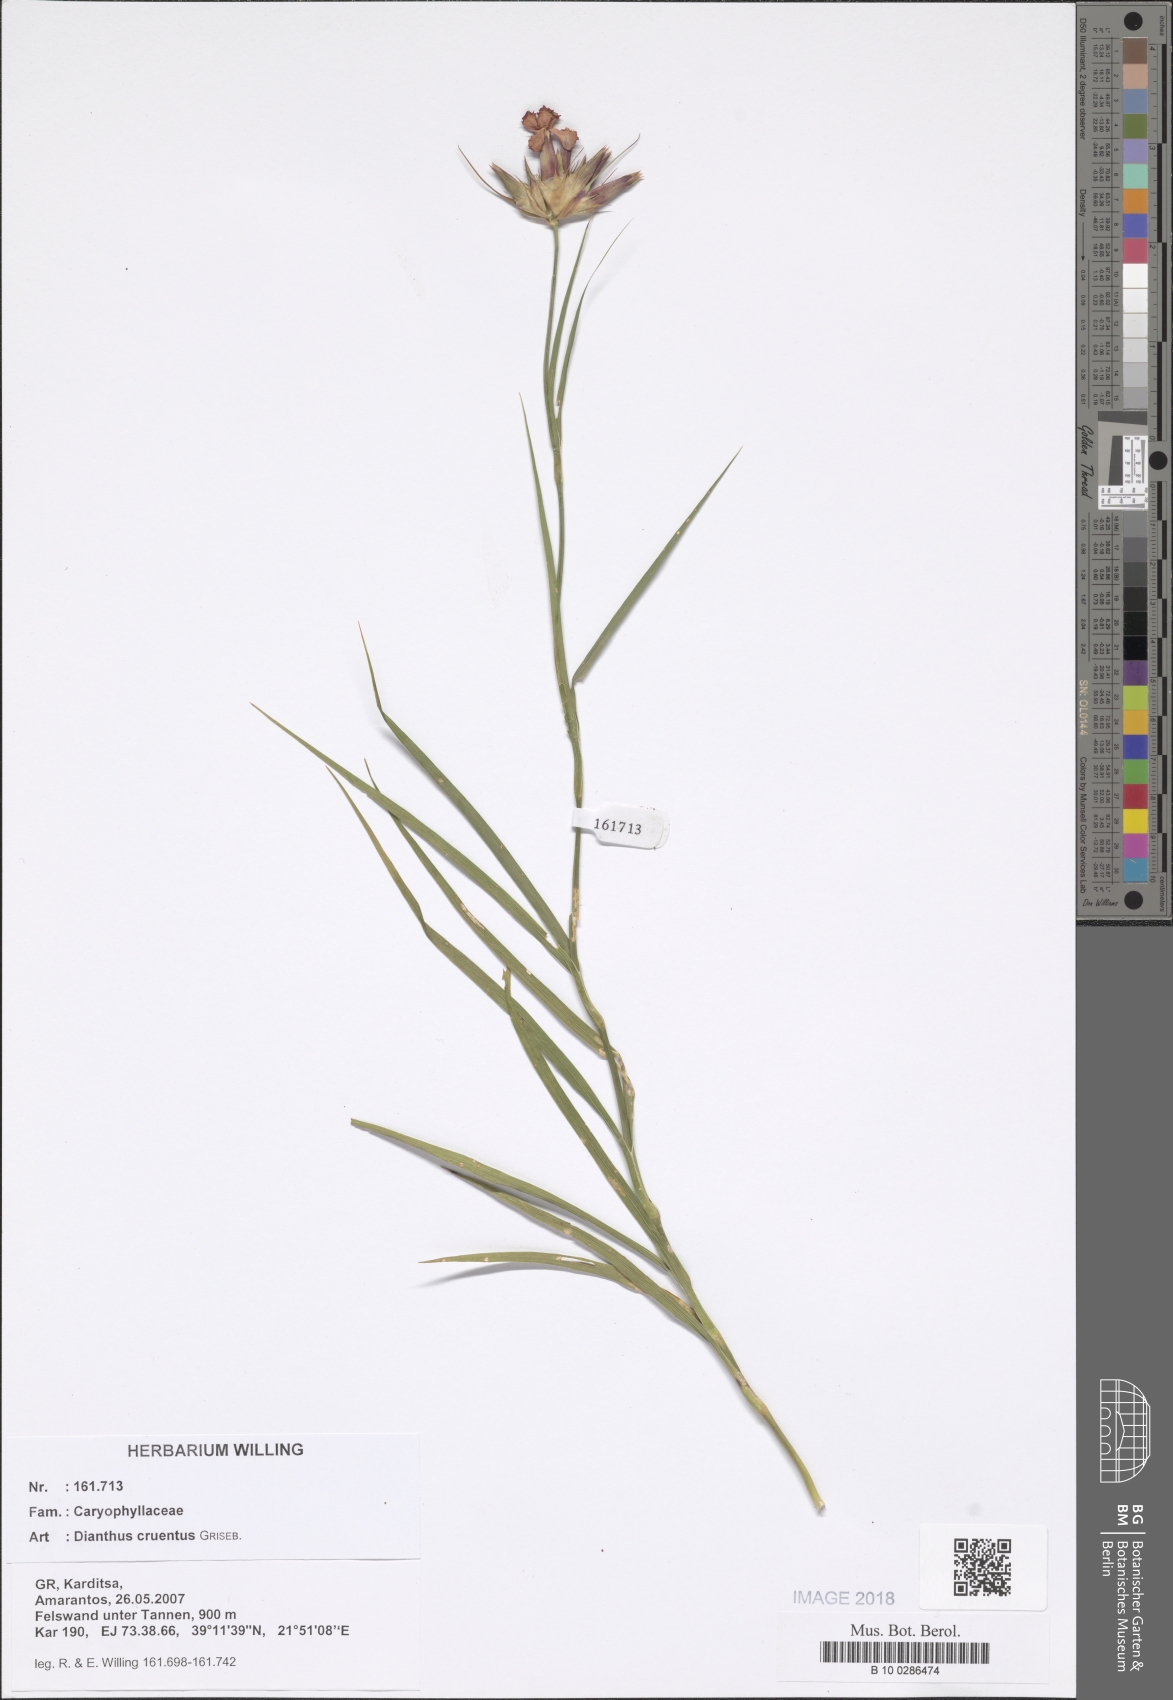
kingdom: Plantae
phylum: Tracheophyta
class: Magnoliopsida
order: Caryophyllales
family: Caryophyllaceae
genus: Dianthus
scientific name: Dianthus cruentus
